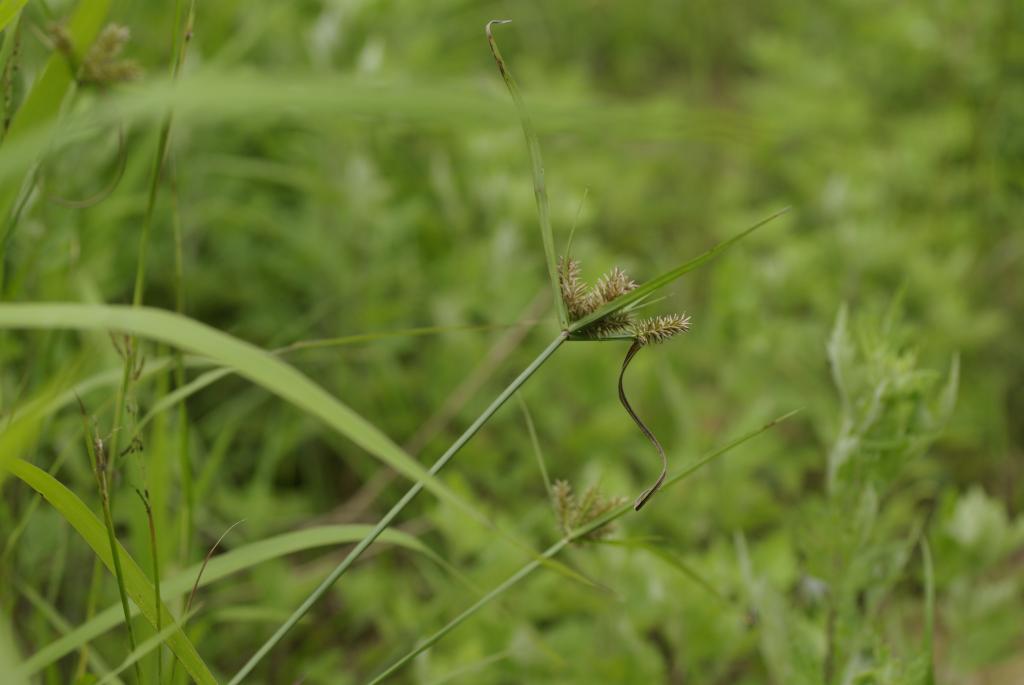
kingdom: Plantae
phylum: Tracheophyta
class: Liliopsida
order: Poales
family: Cyperaceae
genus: Cyperus
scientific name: Cyperus cyperoides
